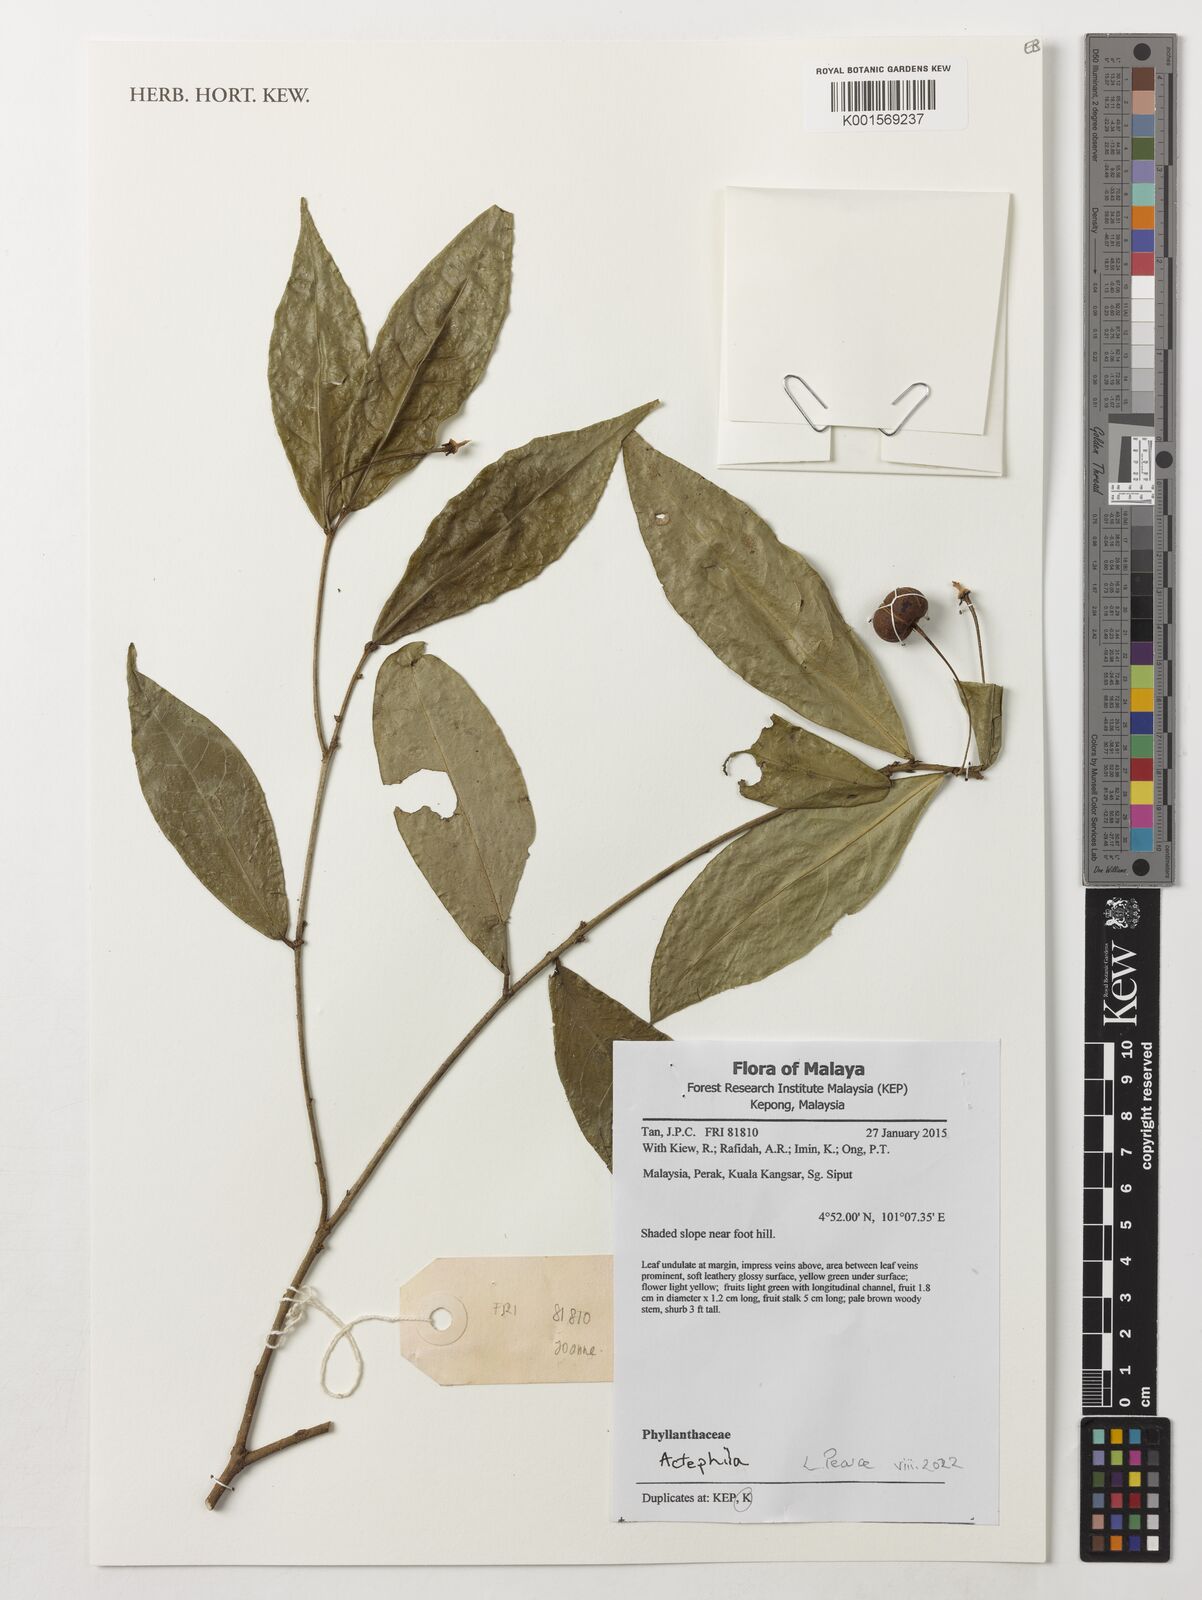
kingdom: Plantae
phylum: Tracheophyta
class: Magnoliopsida
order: Malpighiales
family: Phyllanthaceae
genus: Actephila
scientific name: Actephila
